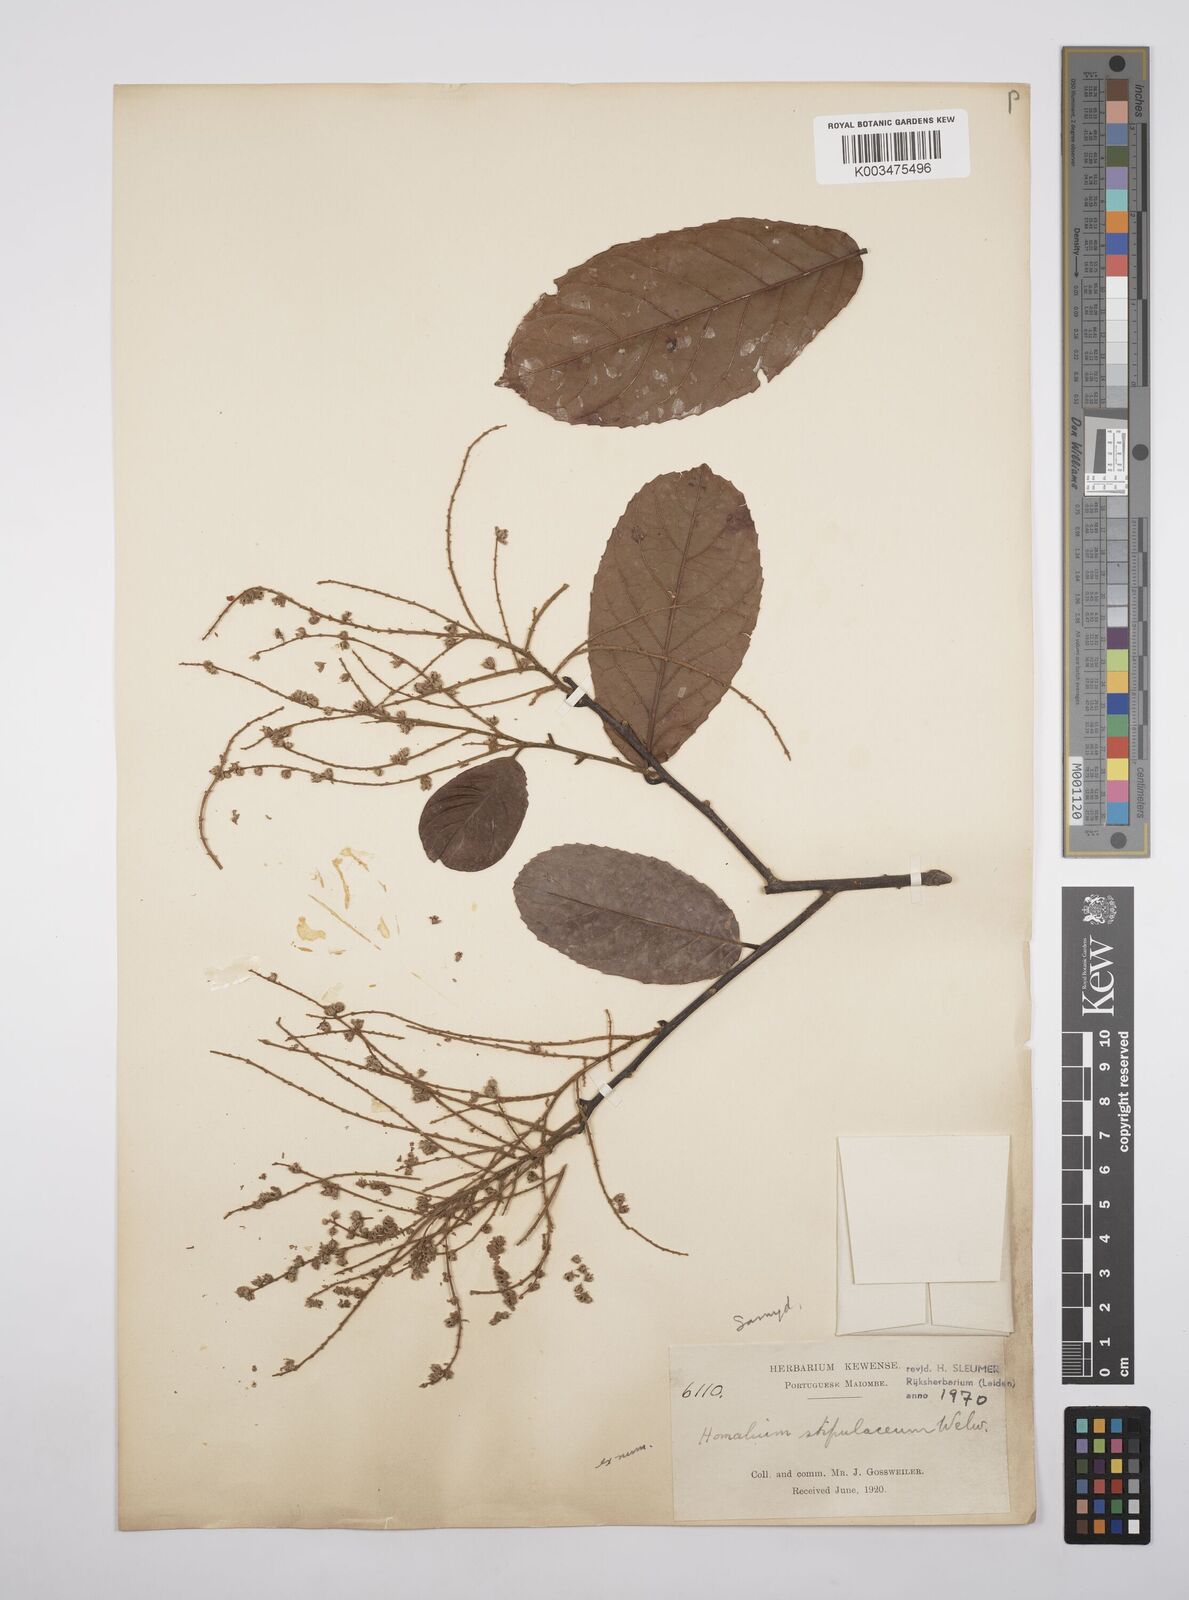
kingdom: Plantae
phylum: Tracheophyta
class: Magnoliopsida
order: Malpighiales
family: Salicaceae
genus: Homalium
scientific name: Homalium stipulaceum
